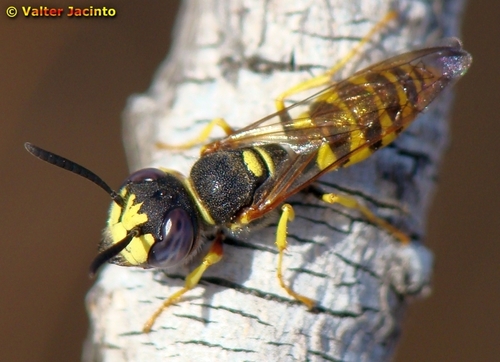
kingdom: Animalia
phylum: Arthropoda
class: Insecta
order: Hymenoptera
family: Crabronidae
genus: Philanthus
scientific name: Philanthus triangulum
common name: Bee wolf
